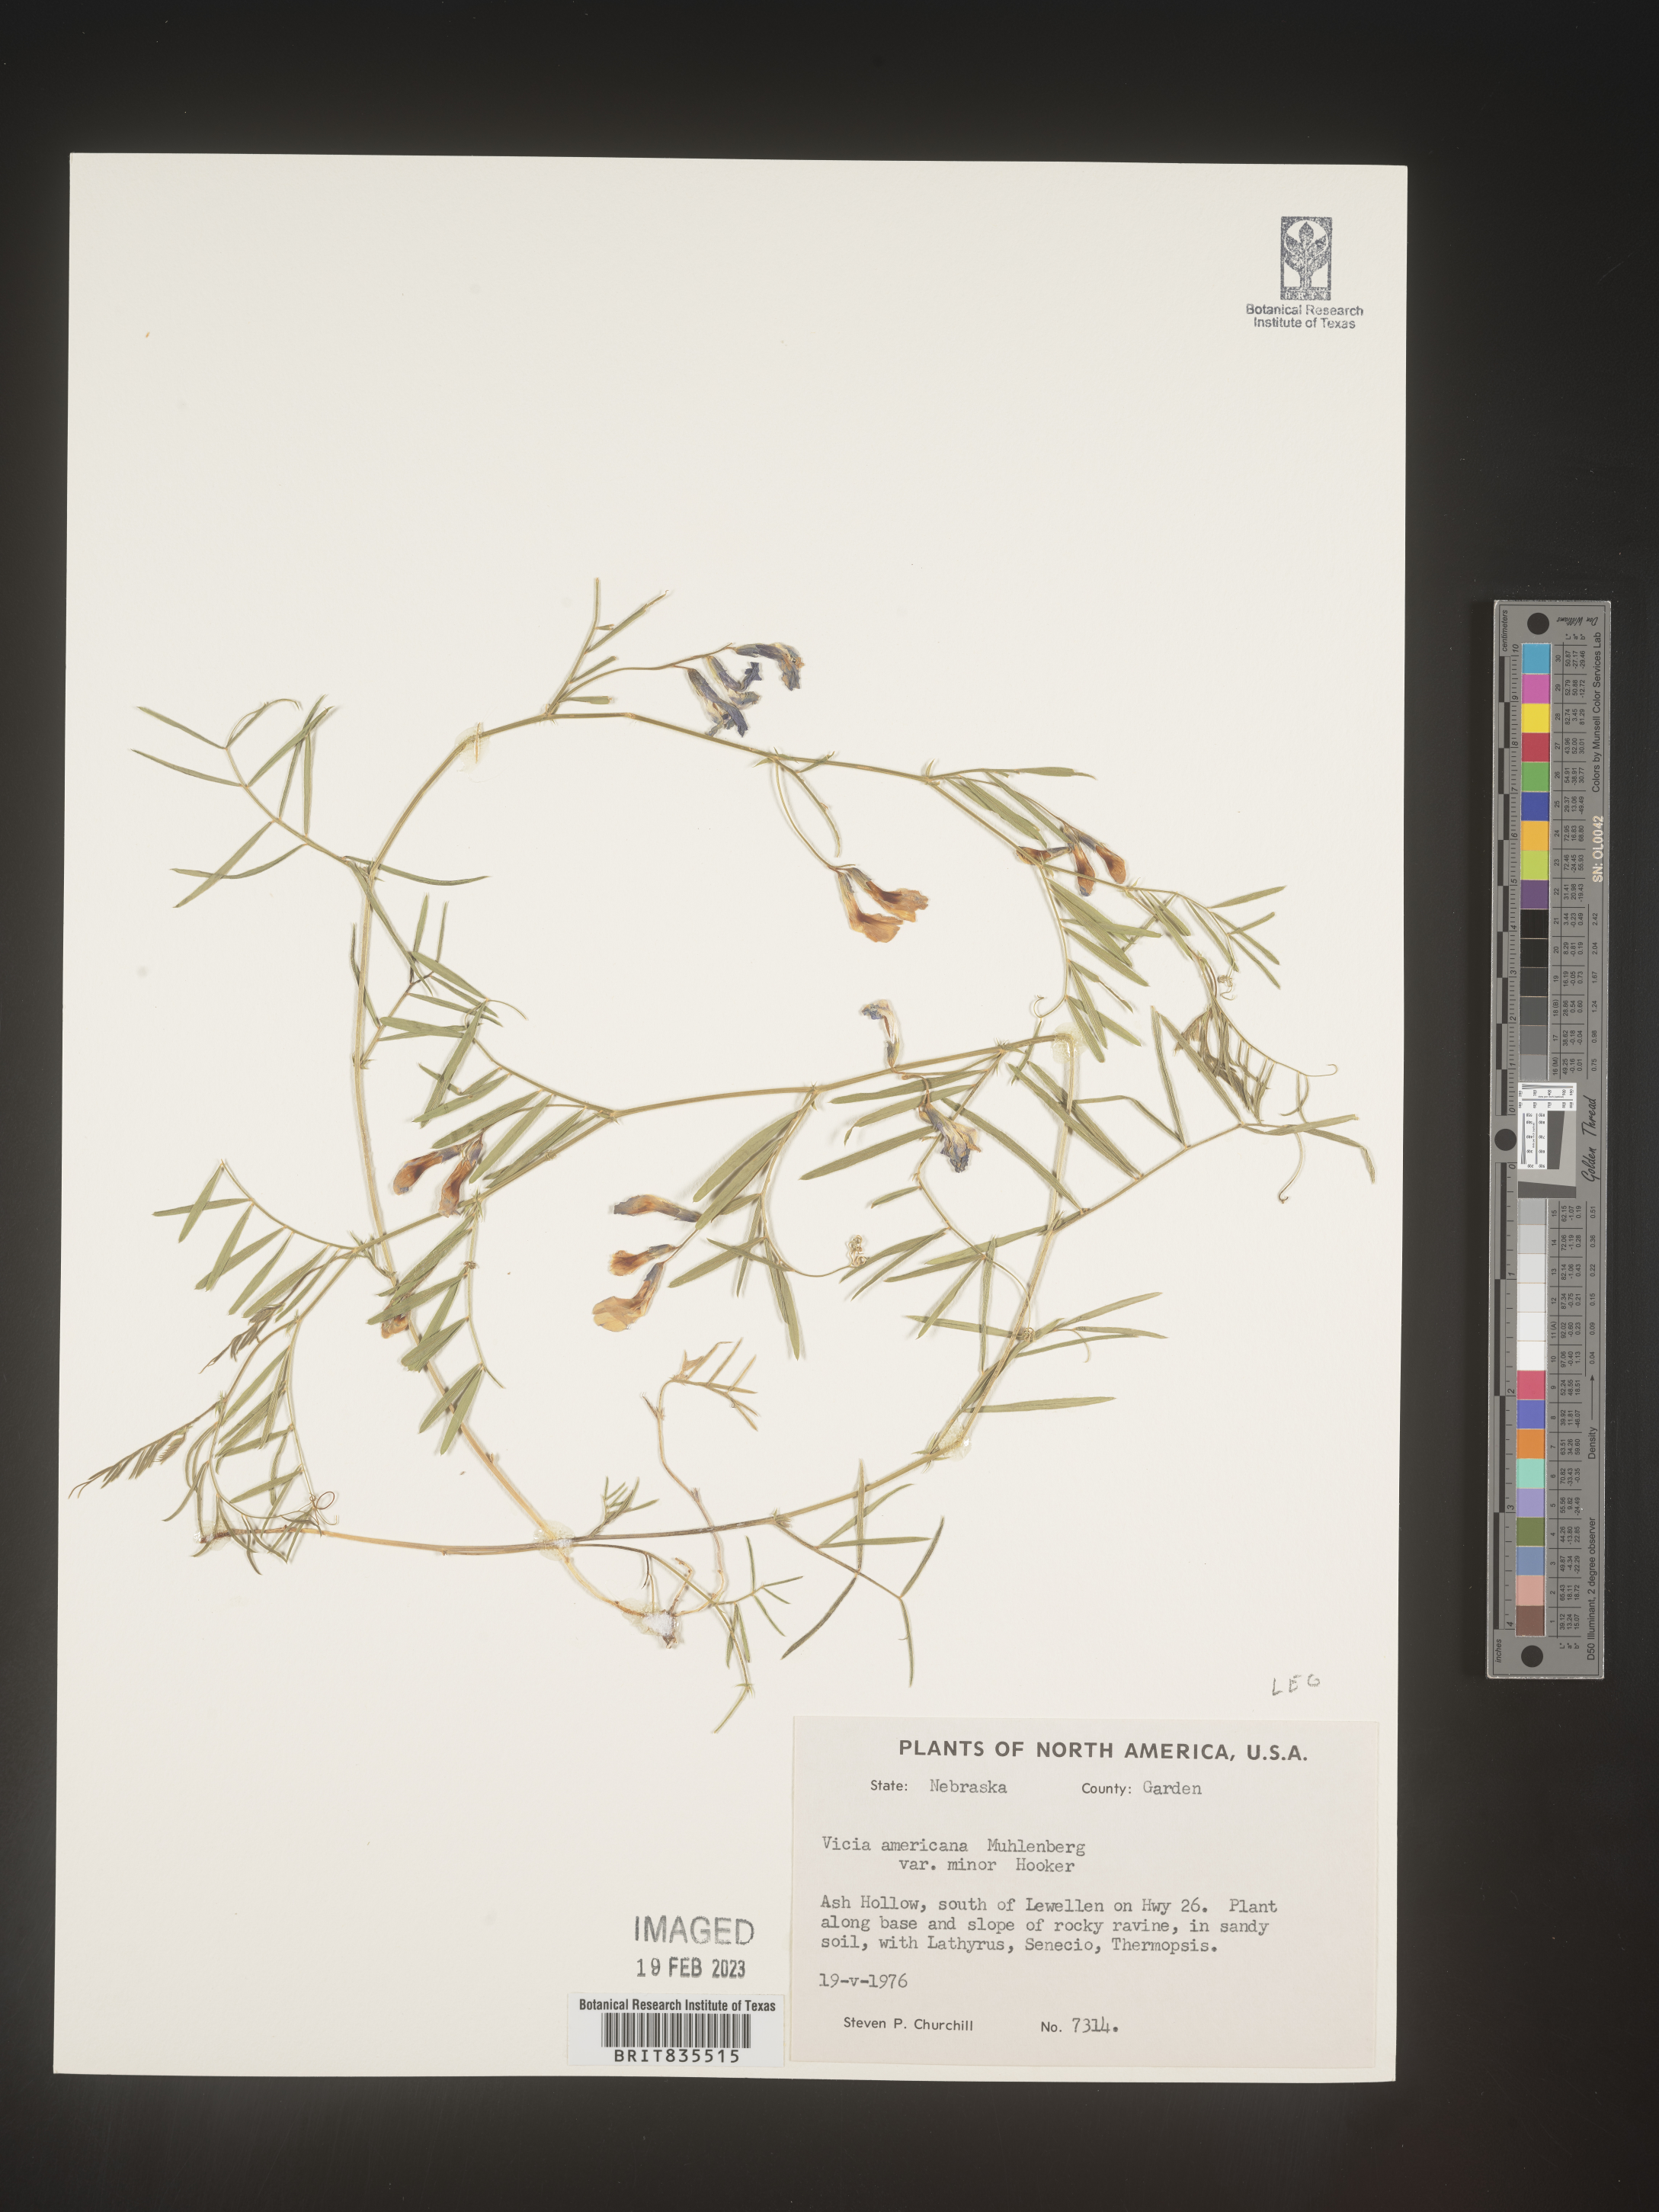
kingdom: Plantae
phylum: Tracheophyta
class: Magnoliopsida
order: Fabales
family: Fabaceae
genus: Vicia
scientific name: Vicia americana
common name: American vetch
